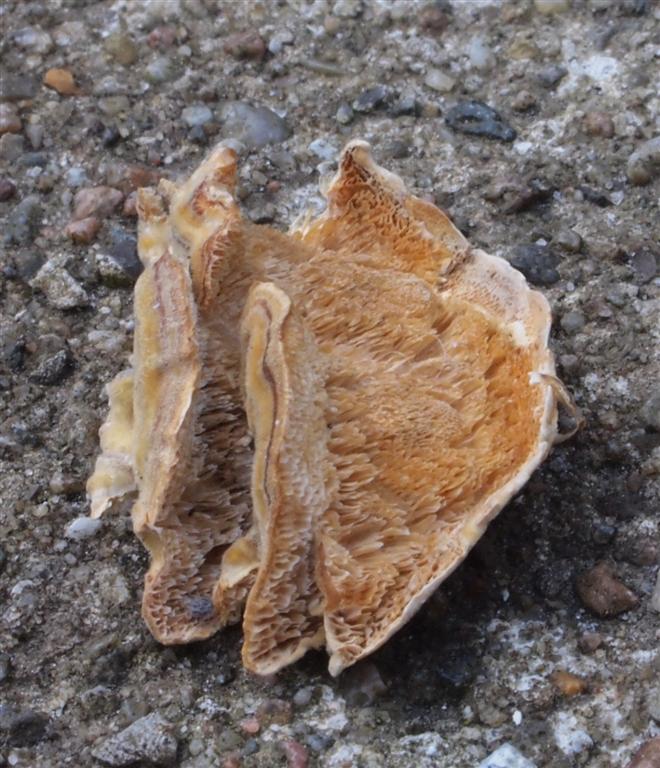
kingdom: Fungi
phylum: Basidiomycota
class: Agaricomycetes
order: Polyporales
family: Polyporaceae
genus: Trametes
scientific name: Trametes versicolor
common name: broget læderporesvamp
